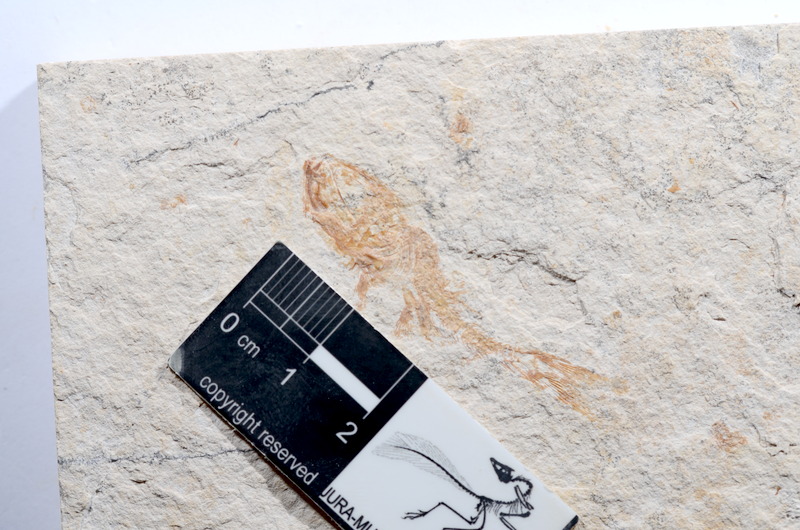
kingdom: Animalia
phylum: Chordata
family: Ascalaboidae
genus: Tharsis
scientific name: Tharsis dubius
